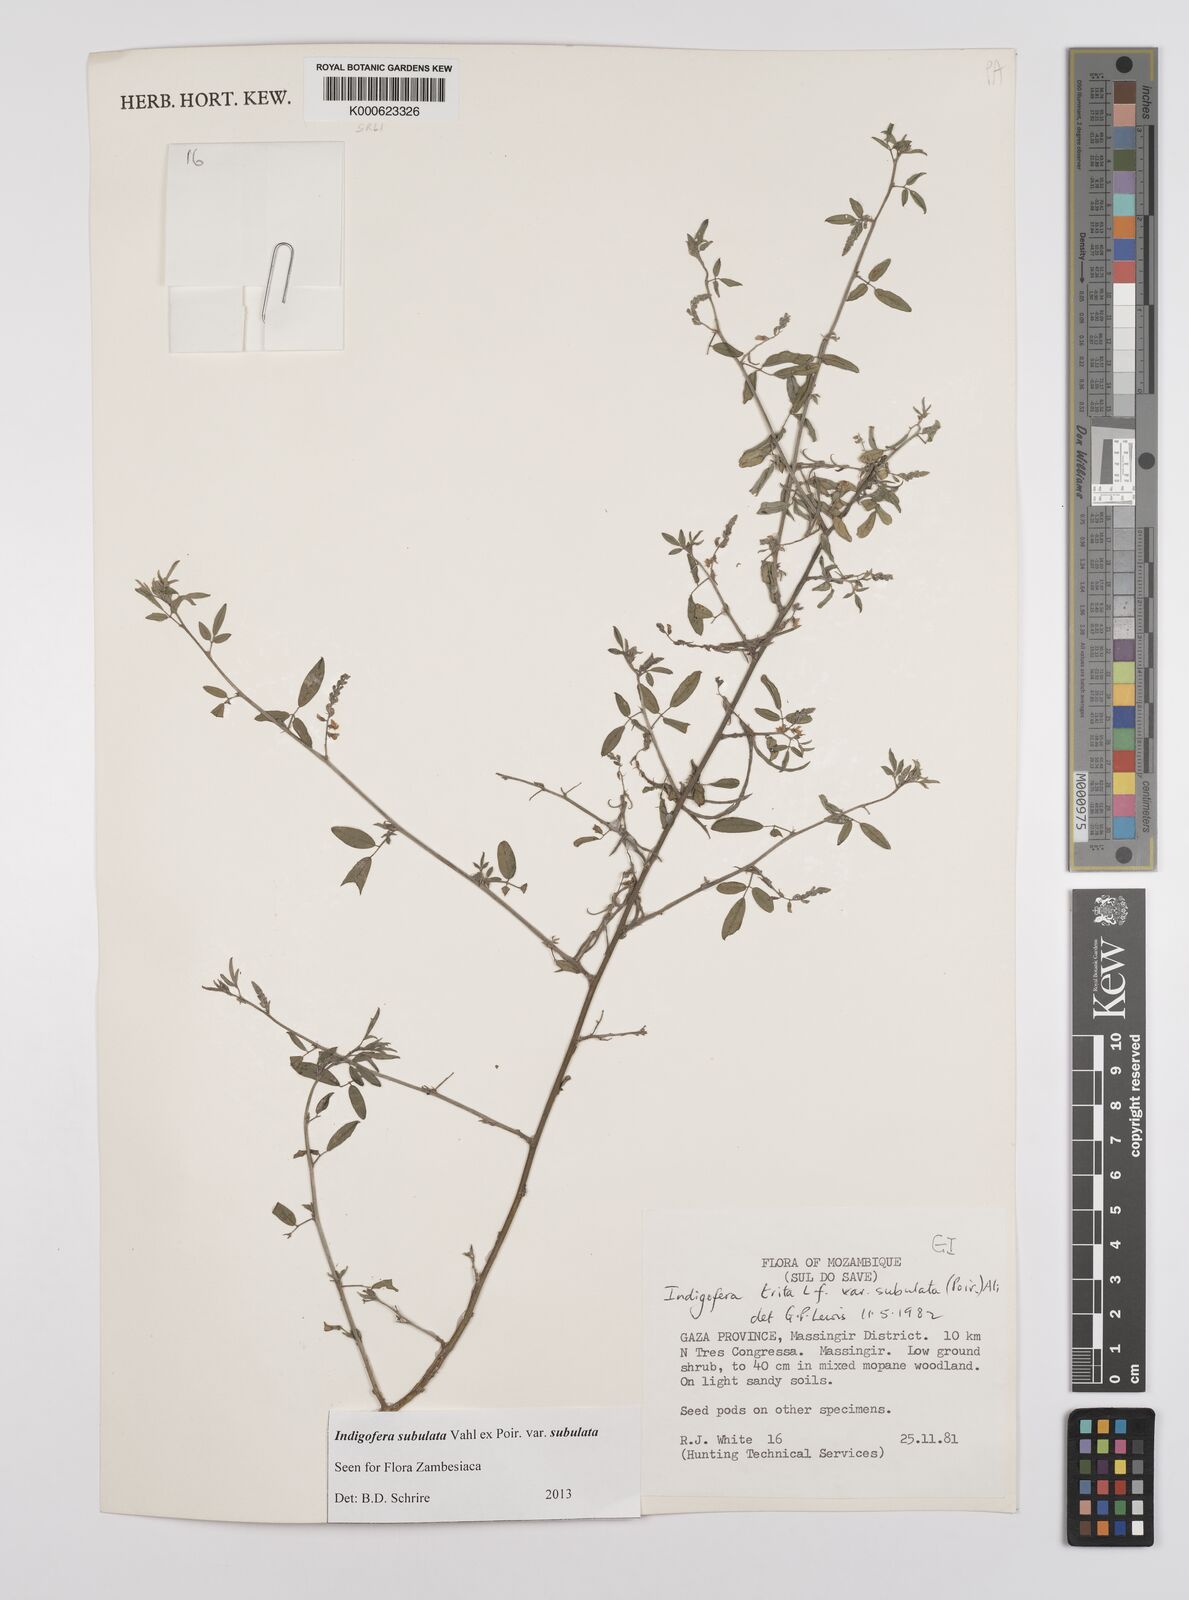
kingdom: Plantae
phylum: Tracheophyta
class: Magnoliopsida
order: Fabales
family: Fabaceae
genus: Indigofera
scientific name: Indigofera subulata
